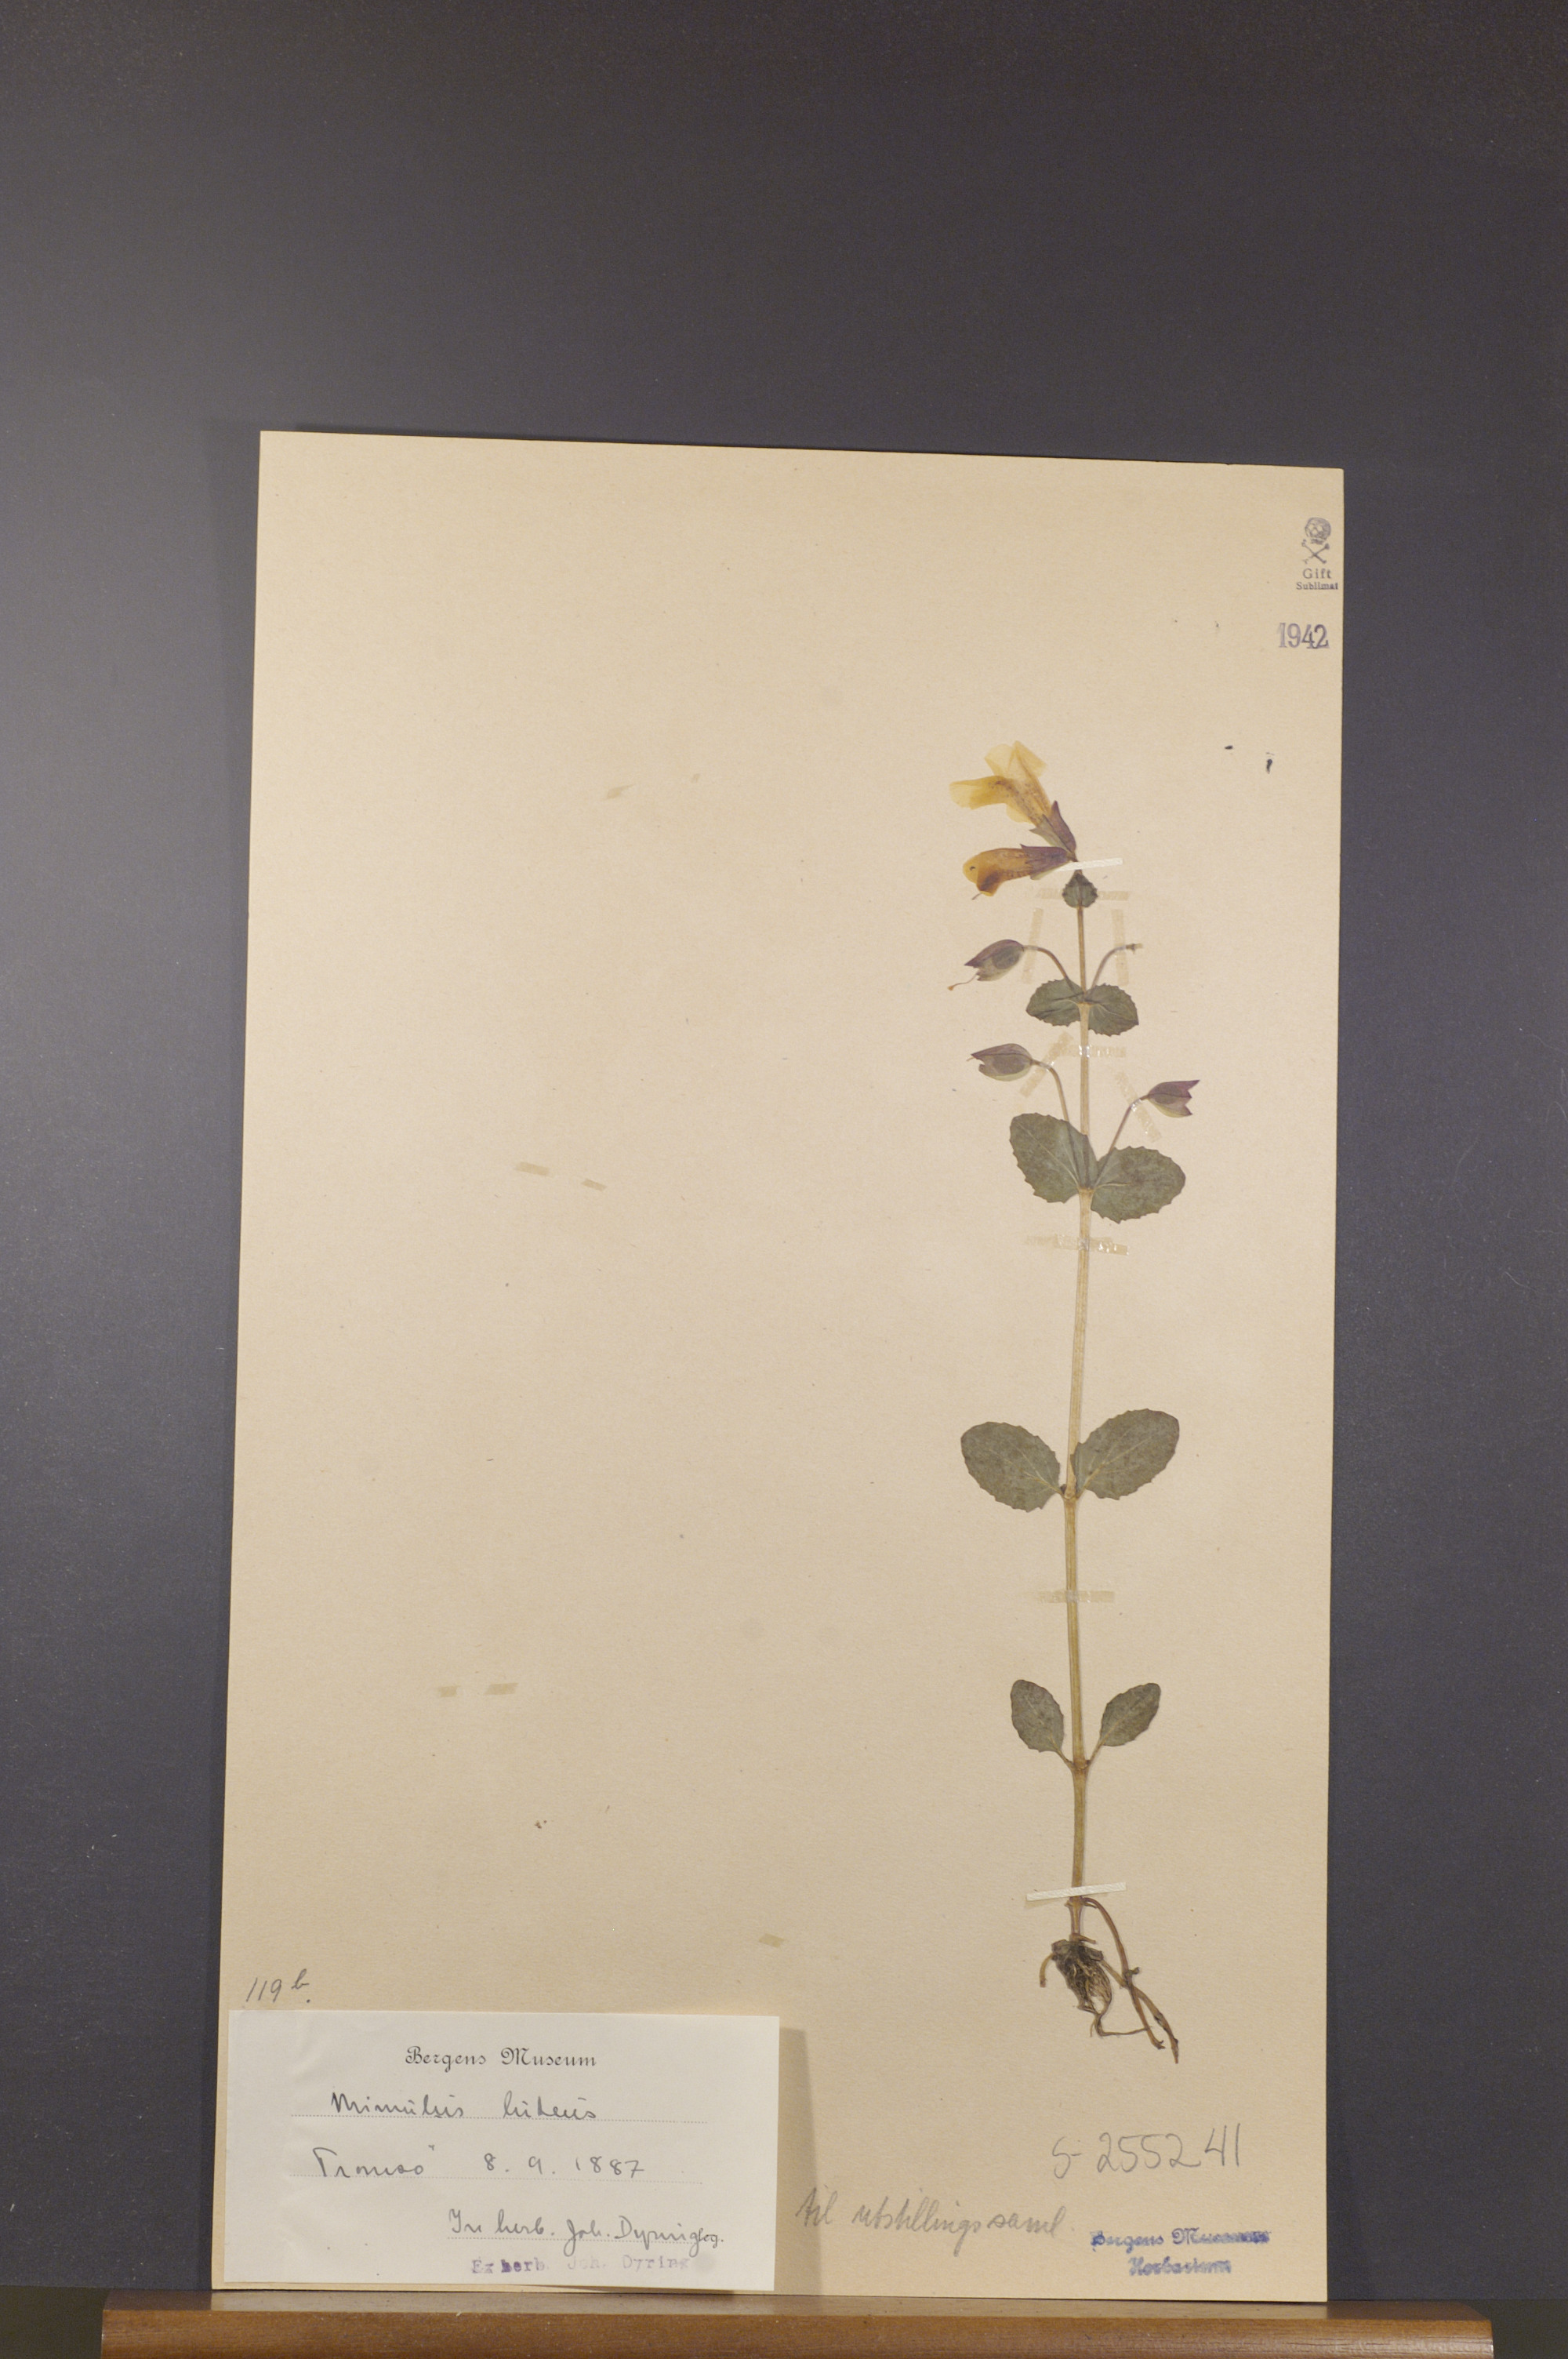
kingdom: Plantae
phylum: Tracheophyta
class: Magnoliopsida
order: Lamiales
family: Phrymaceae
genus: Erythranthe
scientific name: Erythranthe lutea
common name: Yellow monkey-flower
